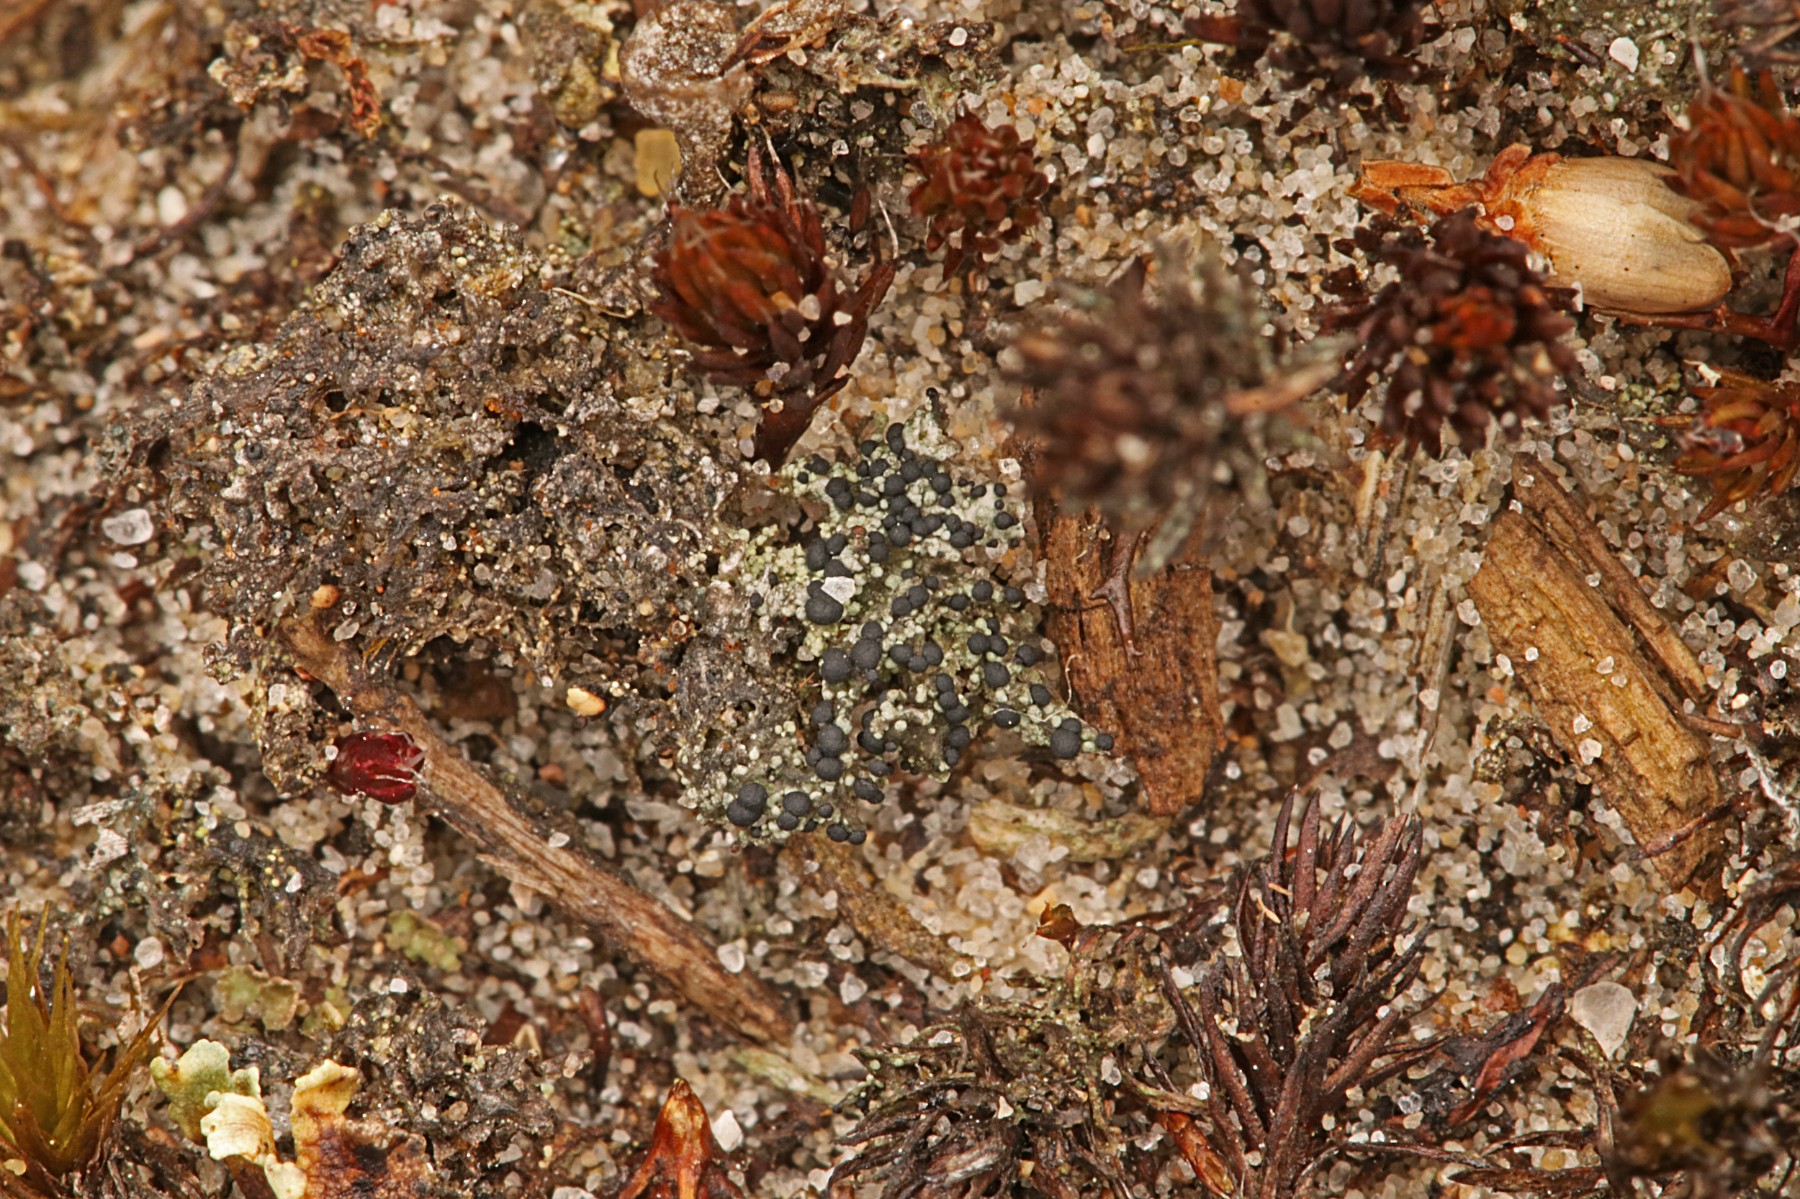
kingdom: Fungi
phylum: Ascomycota
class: Lecanoromycetes
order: Lecanorales
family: Byssolomataceae
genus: Micarea
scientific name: Micarea lignaria
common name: tørve-knaplav
